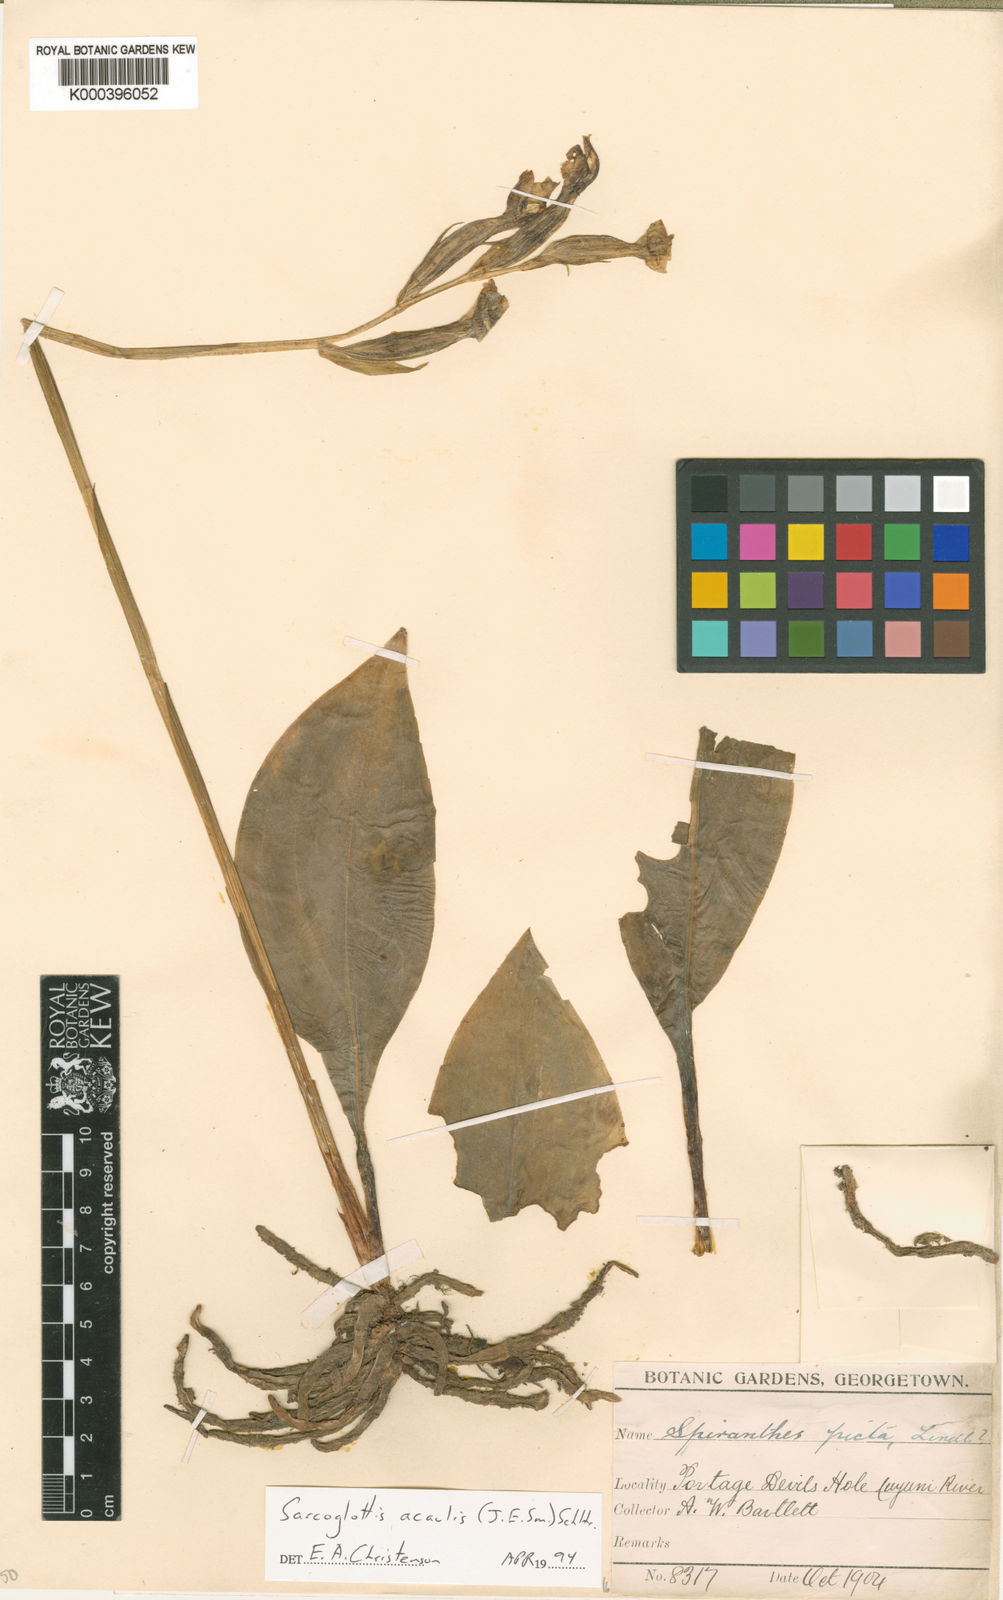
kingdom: Plantae
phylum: Tracheophyta
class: Liliopsida
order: Asparagales
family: Orchidaceae
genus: Sarcoglottis
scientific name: Sarcoglottis acaulis
